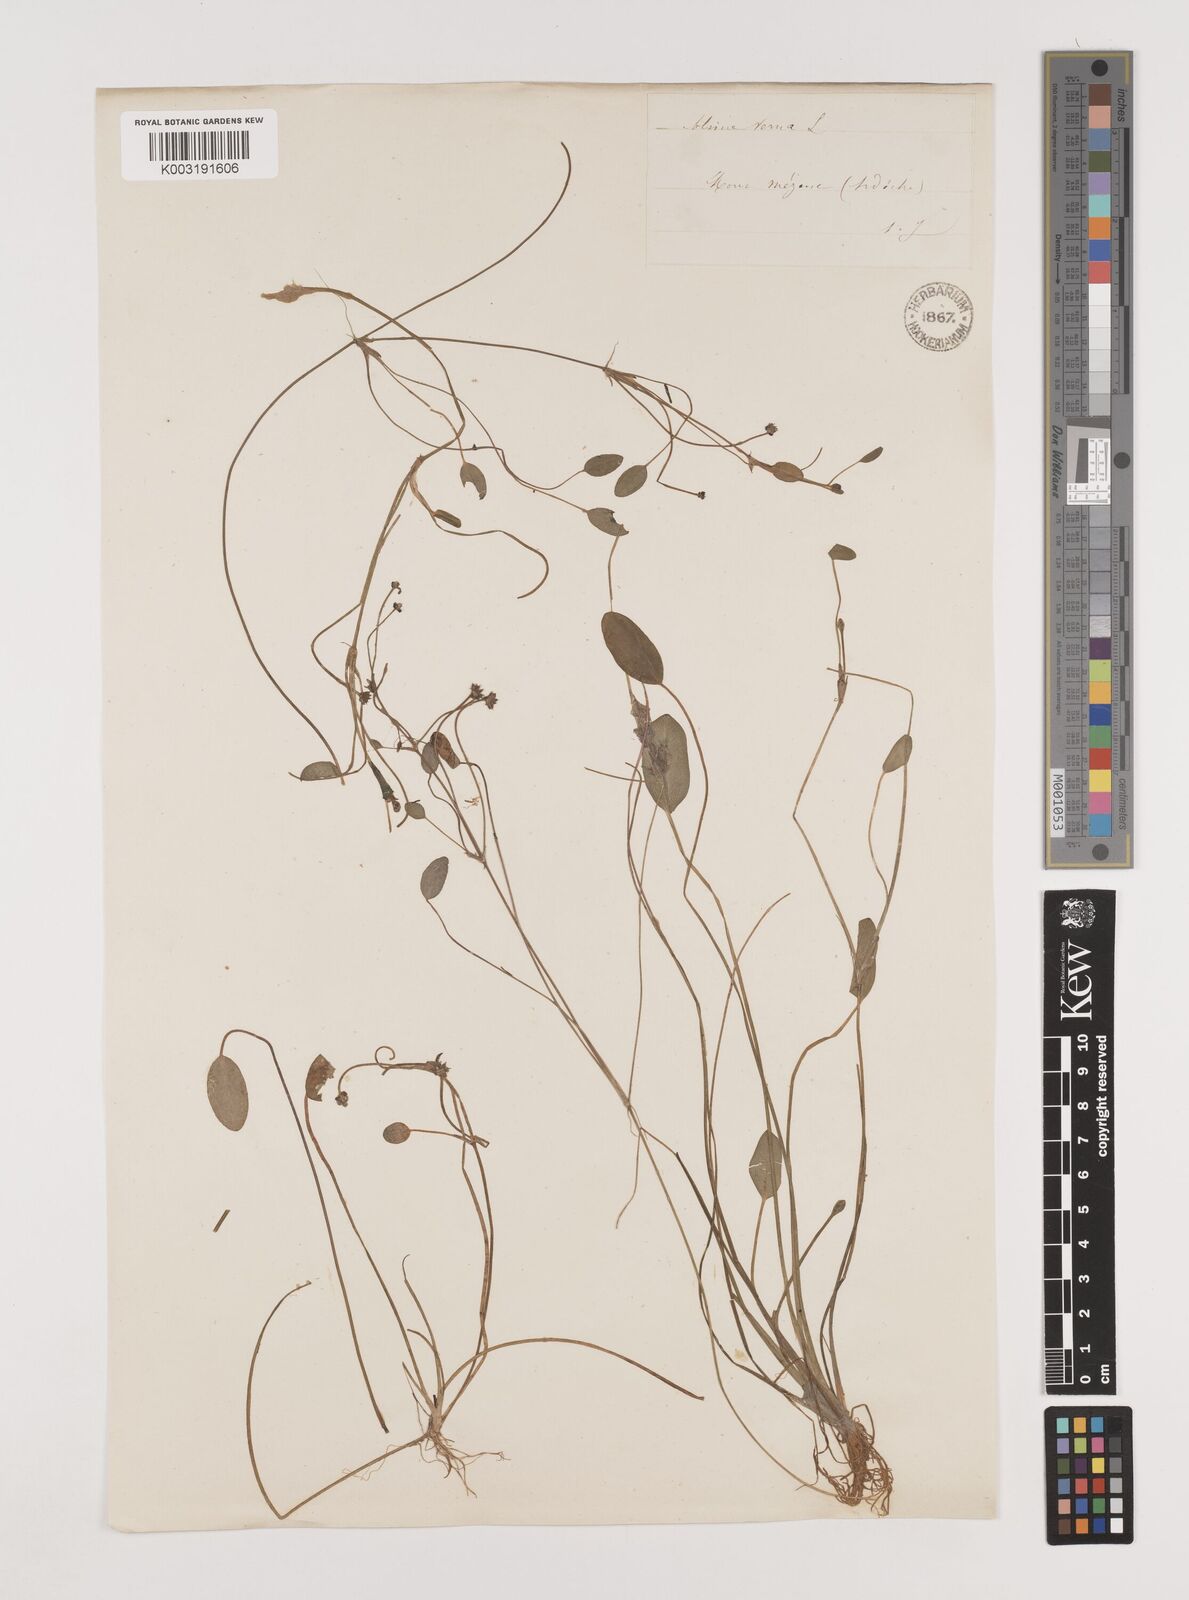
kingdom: Plantae
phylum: Tracheophyta
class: Liliopsida
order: Alismatales
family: Alismataceae
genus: Luronium
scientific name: Luronium natans
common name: Floating water-plantain
